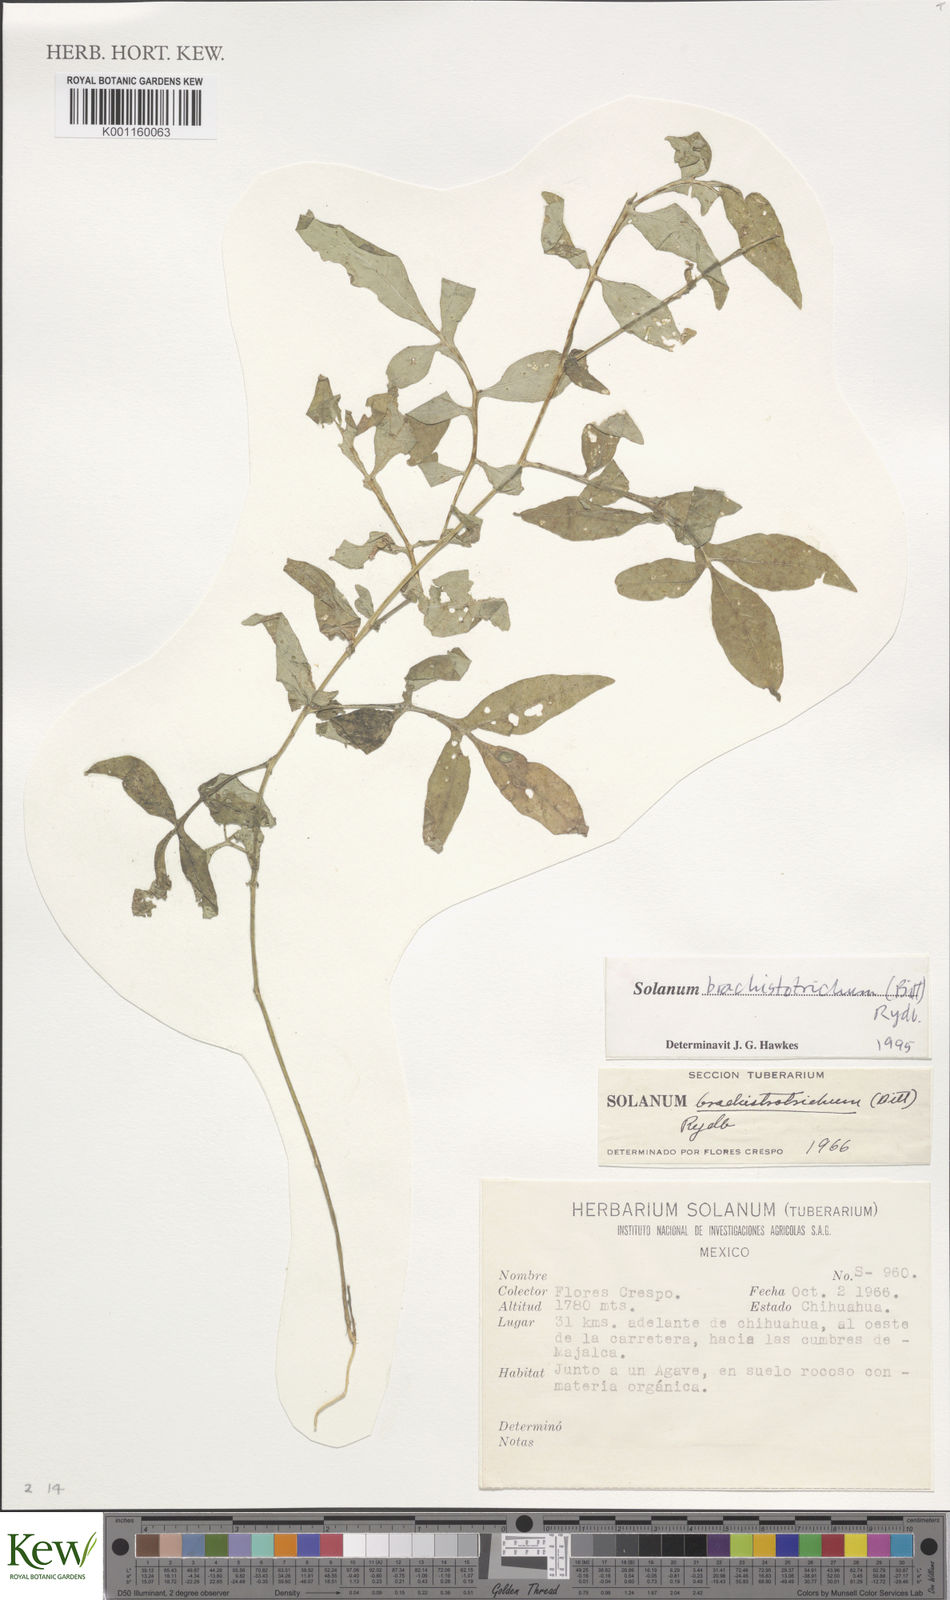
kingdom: Plantae
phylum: Tracheophyta
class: Magnoliopsida
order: Solanales
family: Solanaceae
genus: Solanum
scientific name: Solanum
